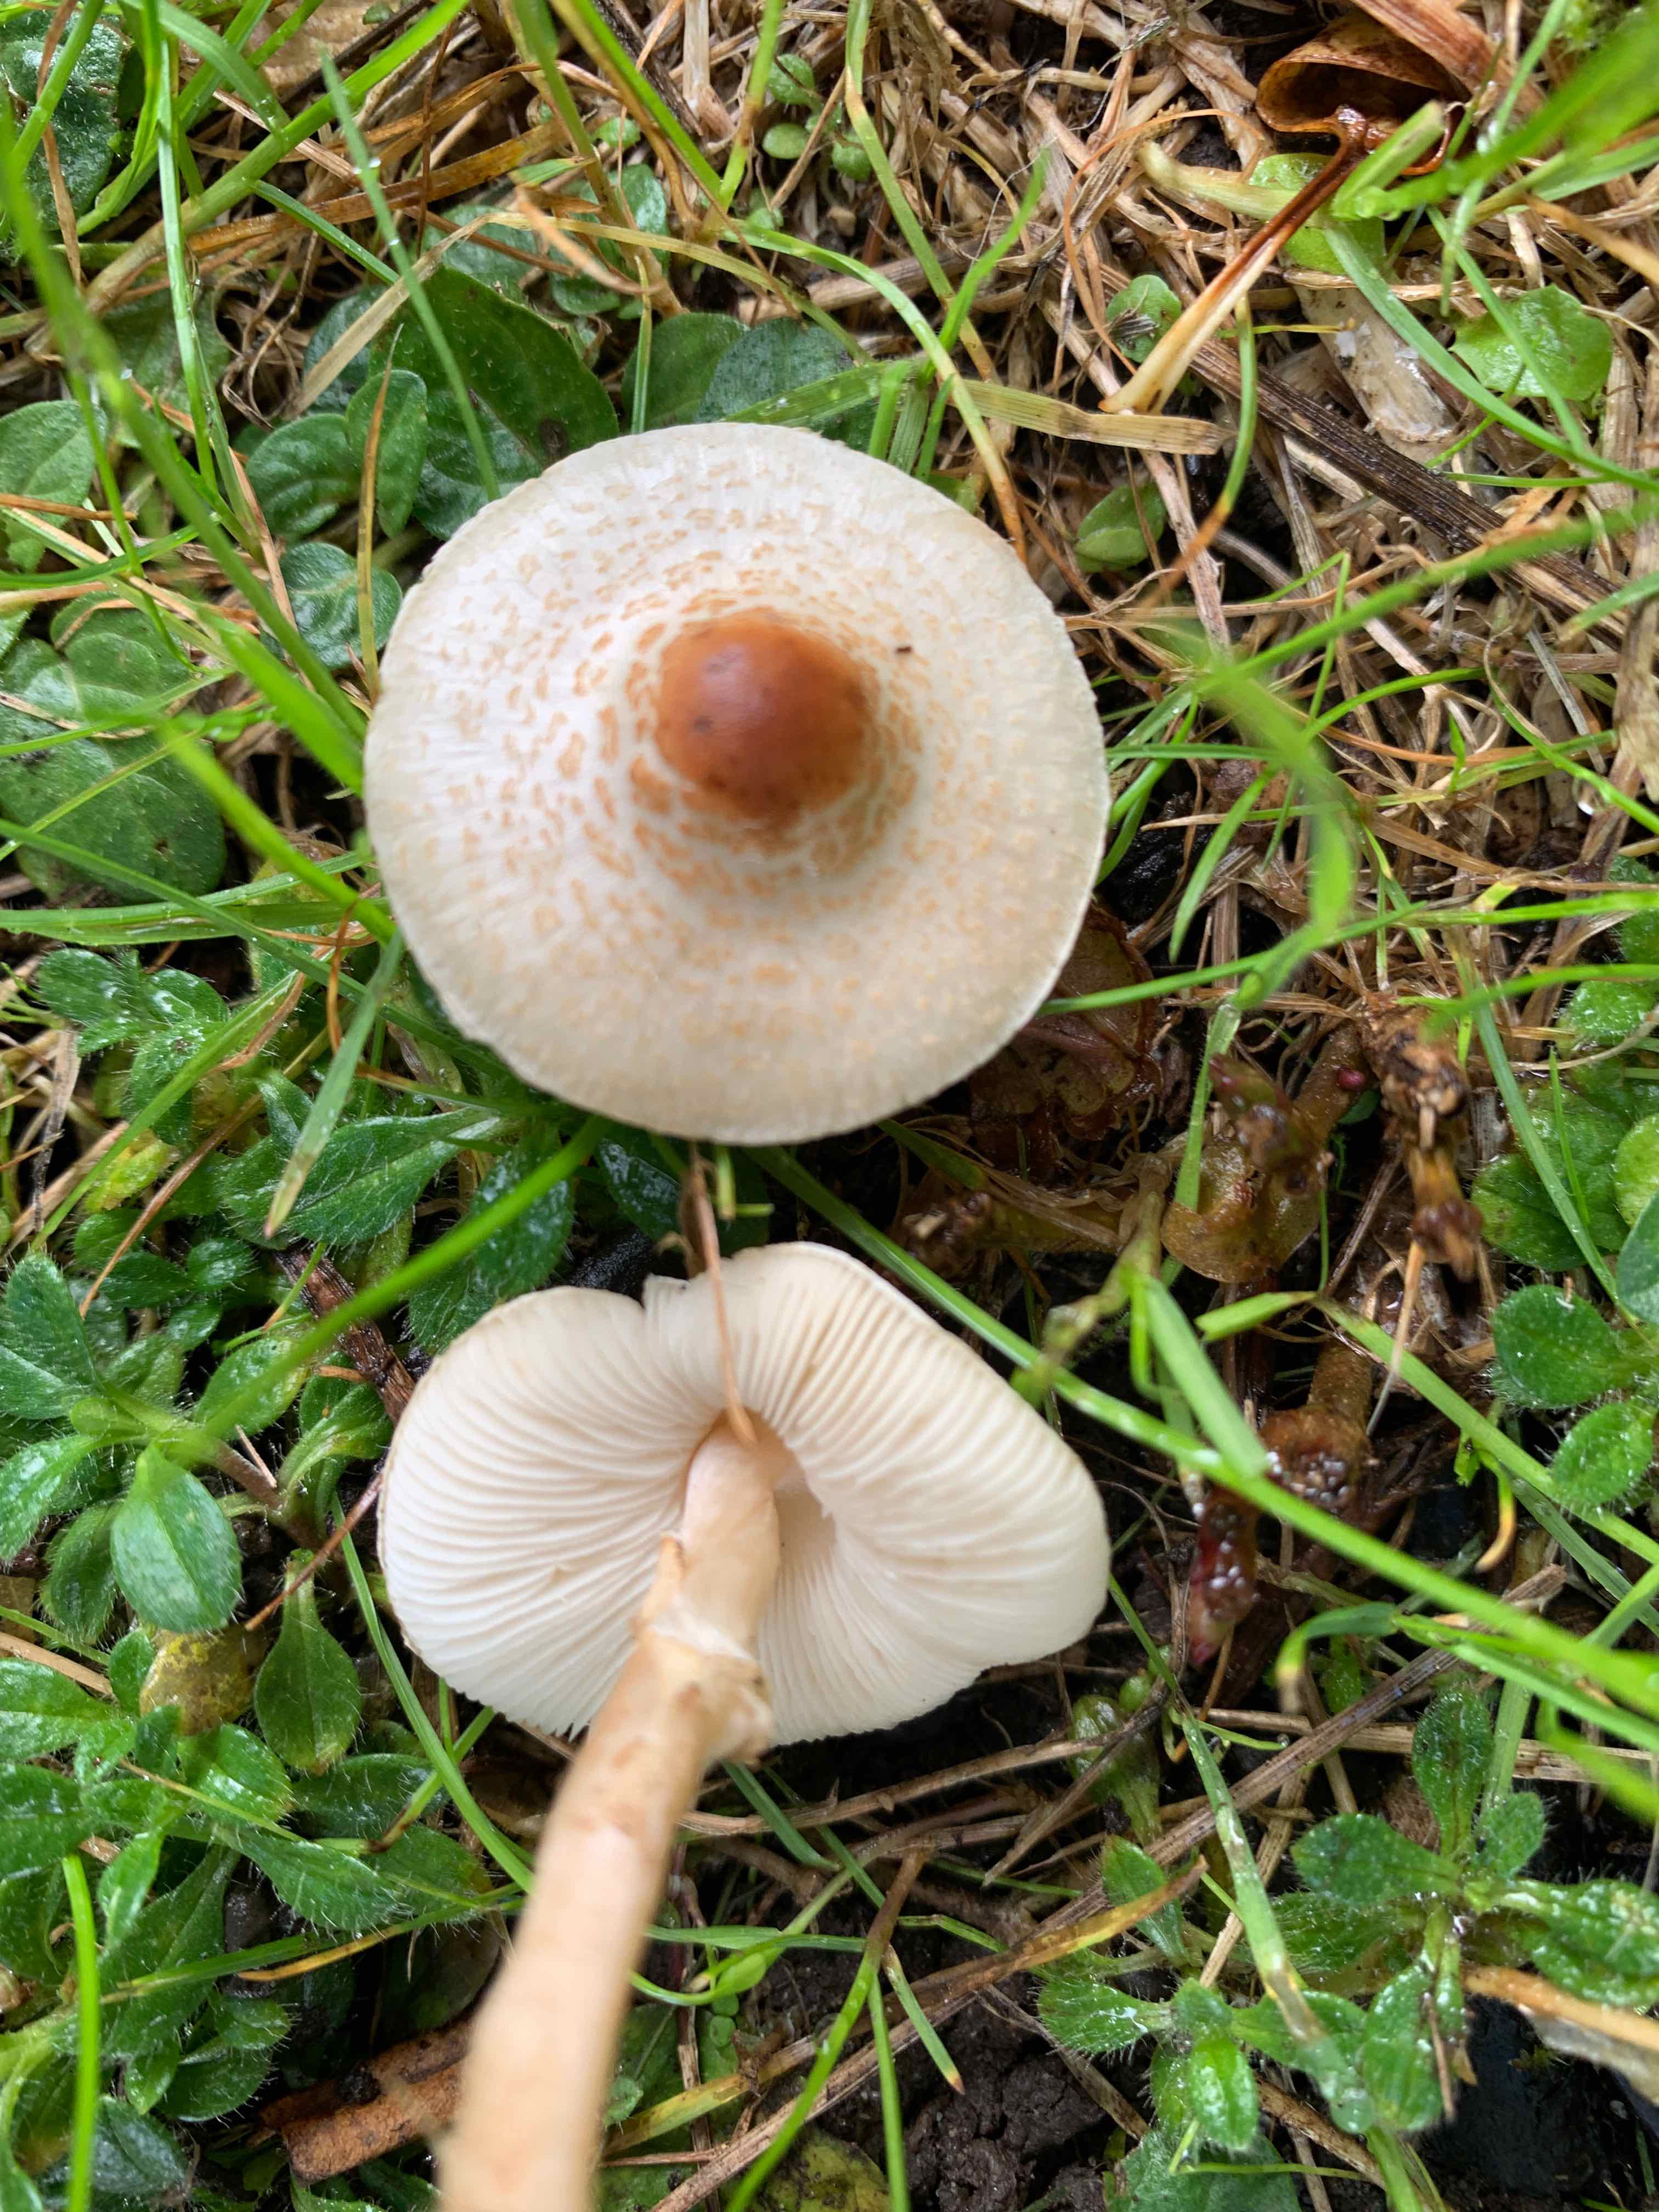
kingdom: Fungi
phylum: Basidiomycota
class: Agaricomycetes
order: Agaricales
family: Agaricaceae
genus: Lepiota
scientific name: Lepiota cristata
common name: stinkende parasolhat
